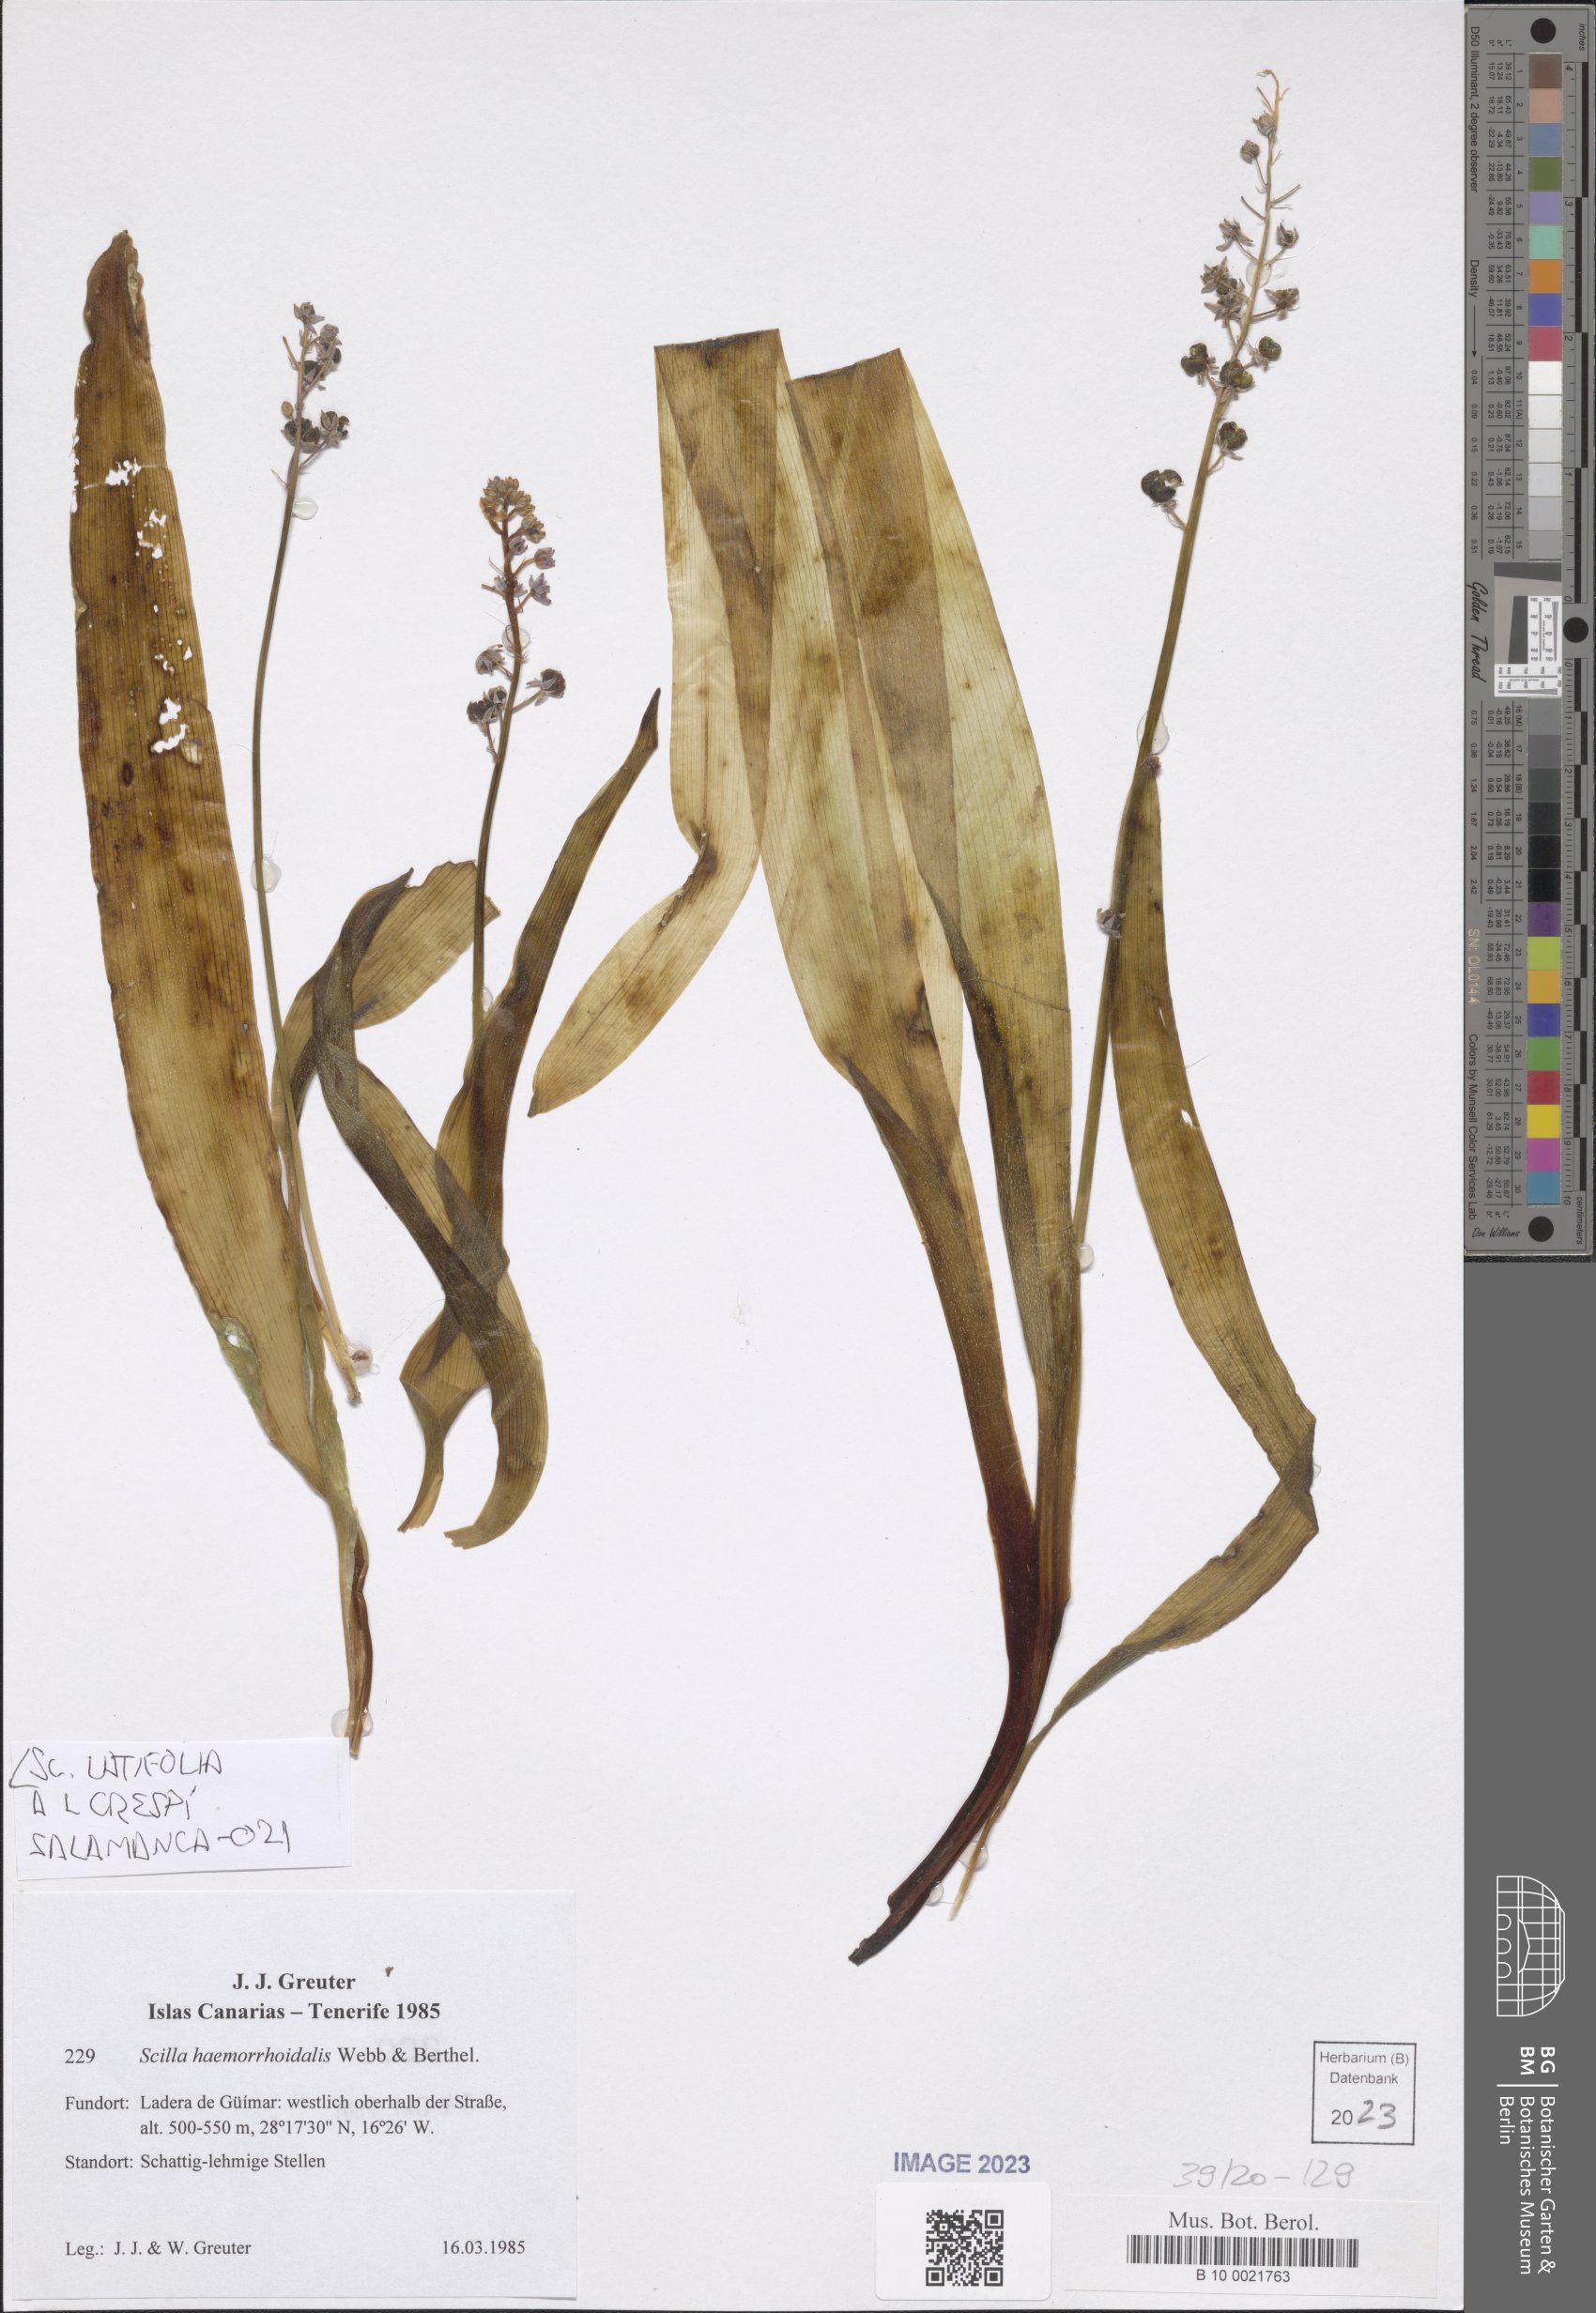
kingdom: Plantae
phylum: Tracheophyta
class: Liliopsida
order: Asparagales
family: Asparagaceae
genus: Scilla
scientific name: Scilla latifolia
